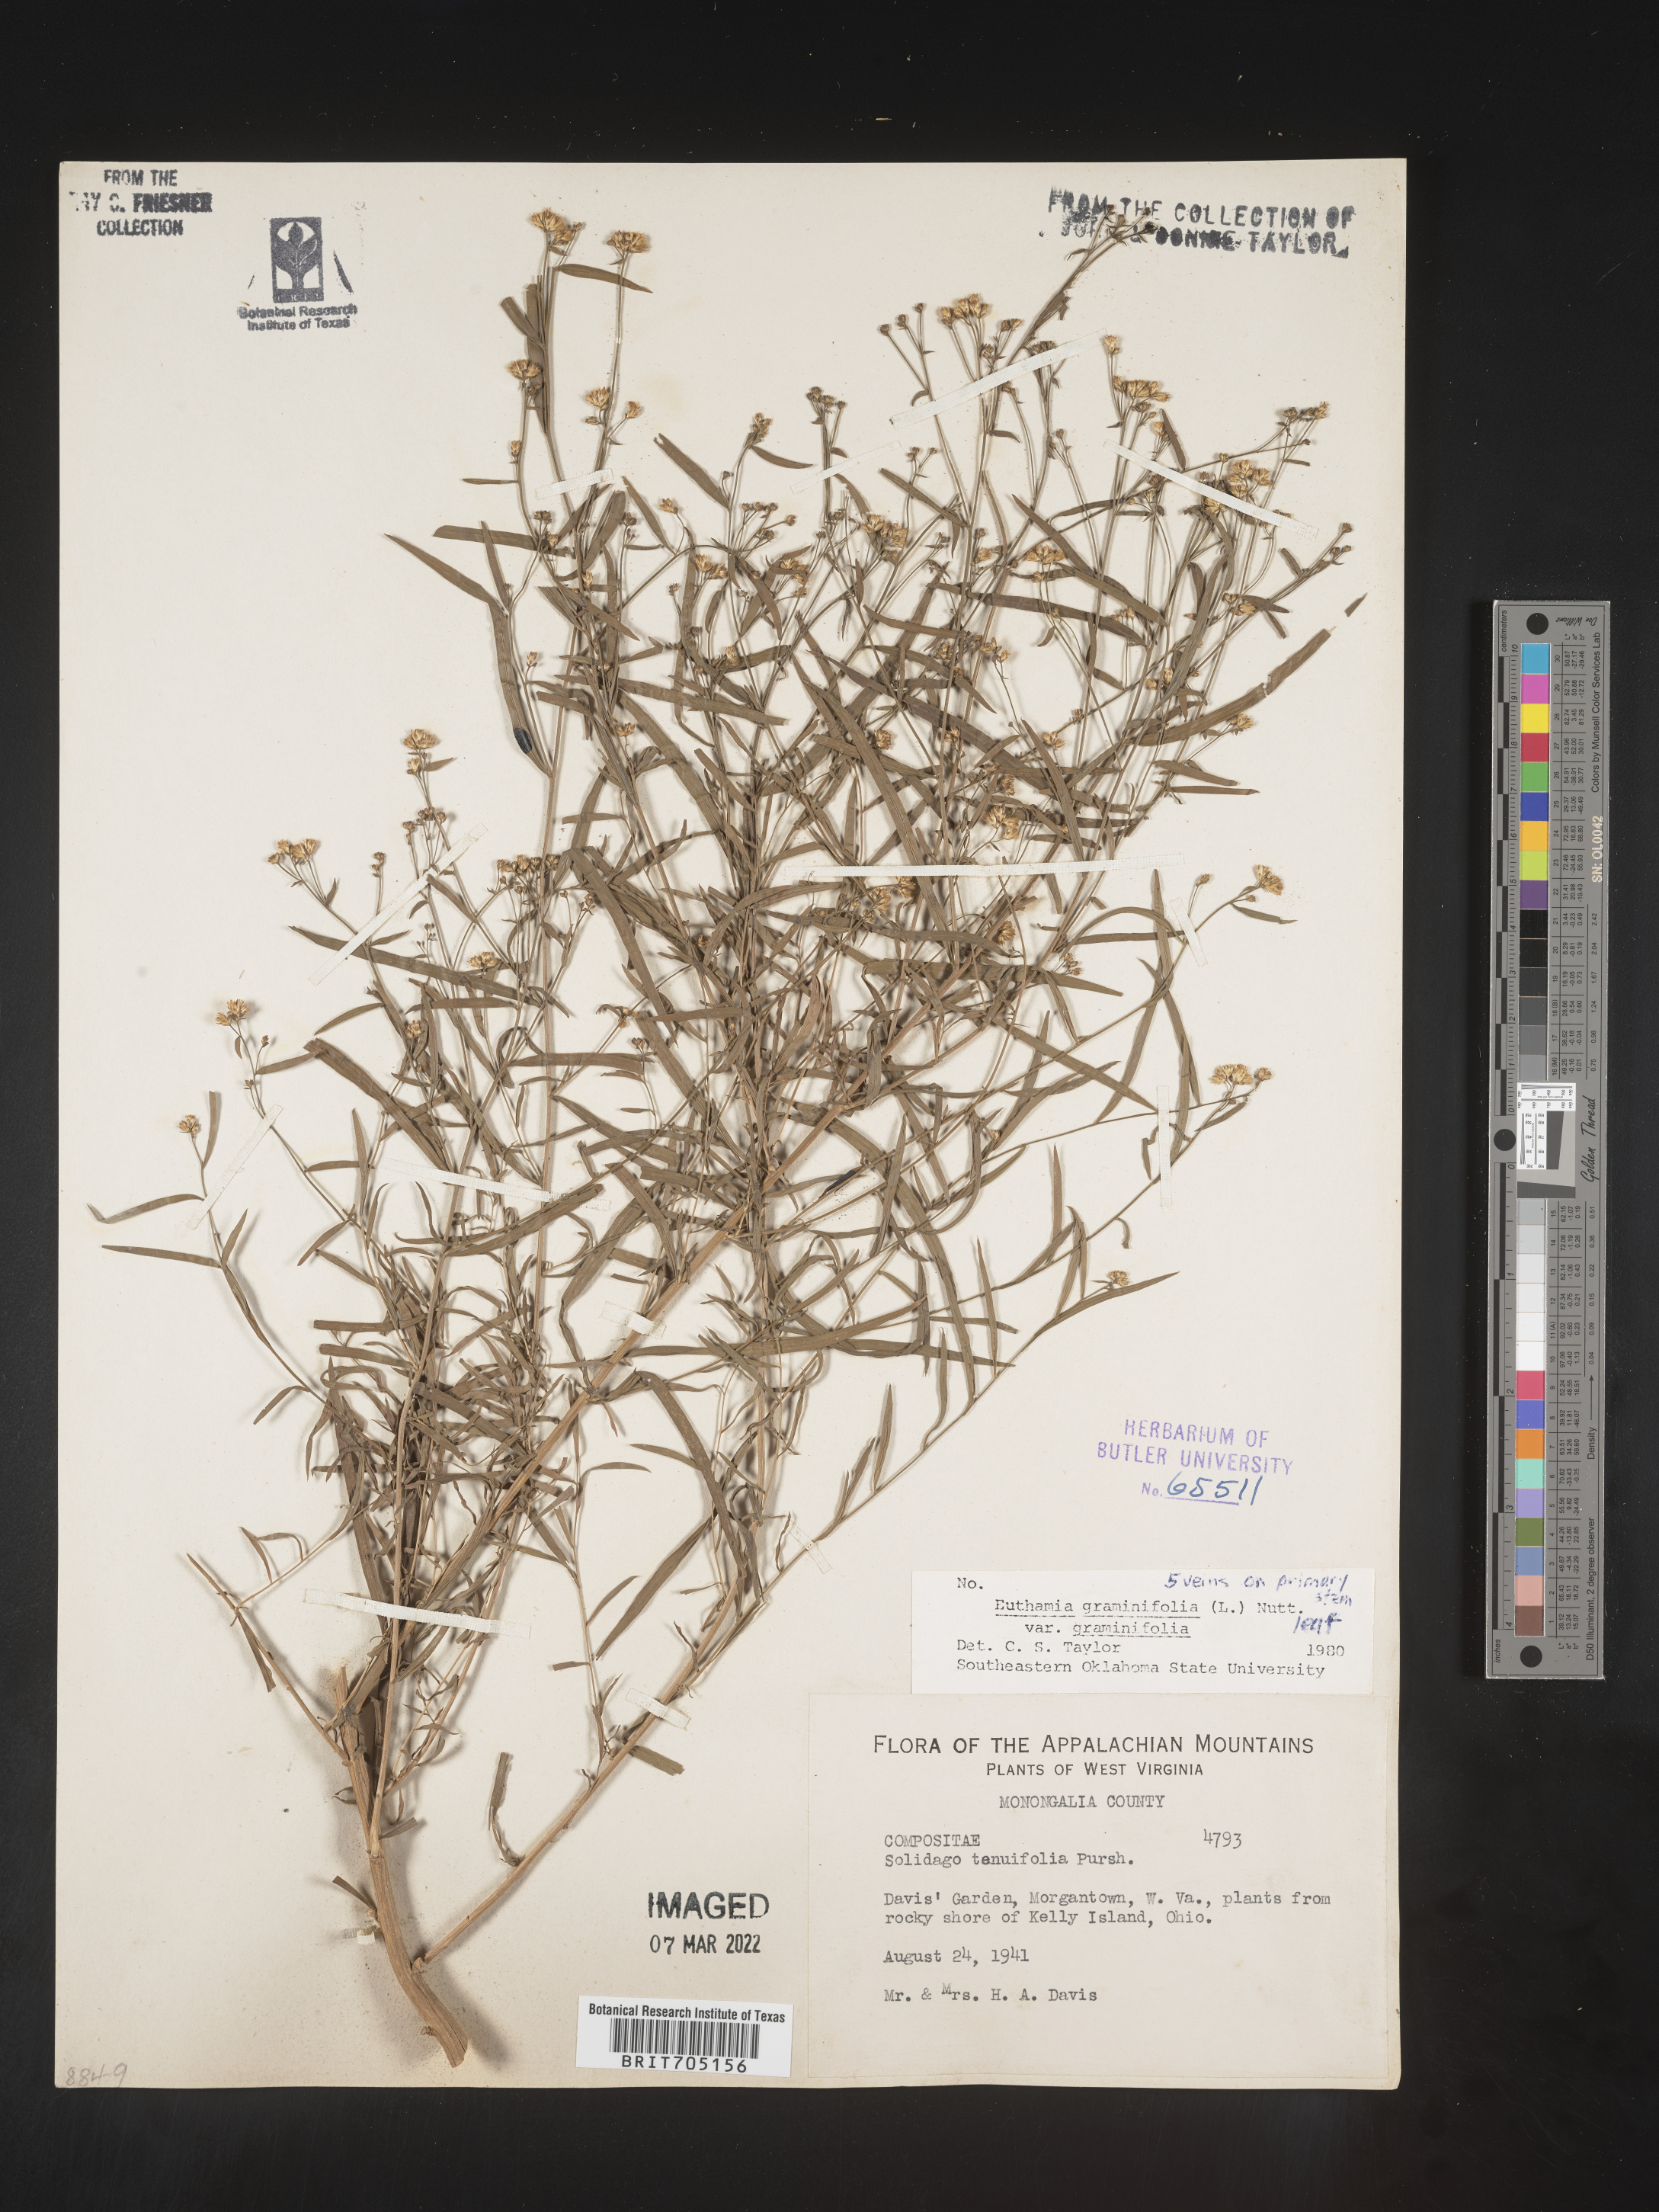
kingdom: Plantae
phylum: Tracheophyta
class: Magnoliopsida
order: Asterales
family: Asteraceae
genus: Euthamia
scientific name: Euthamia graminifolia
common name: Common goldentop
